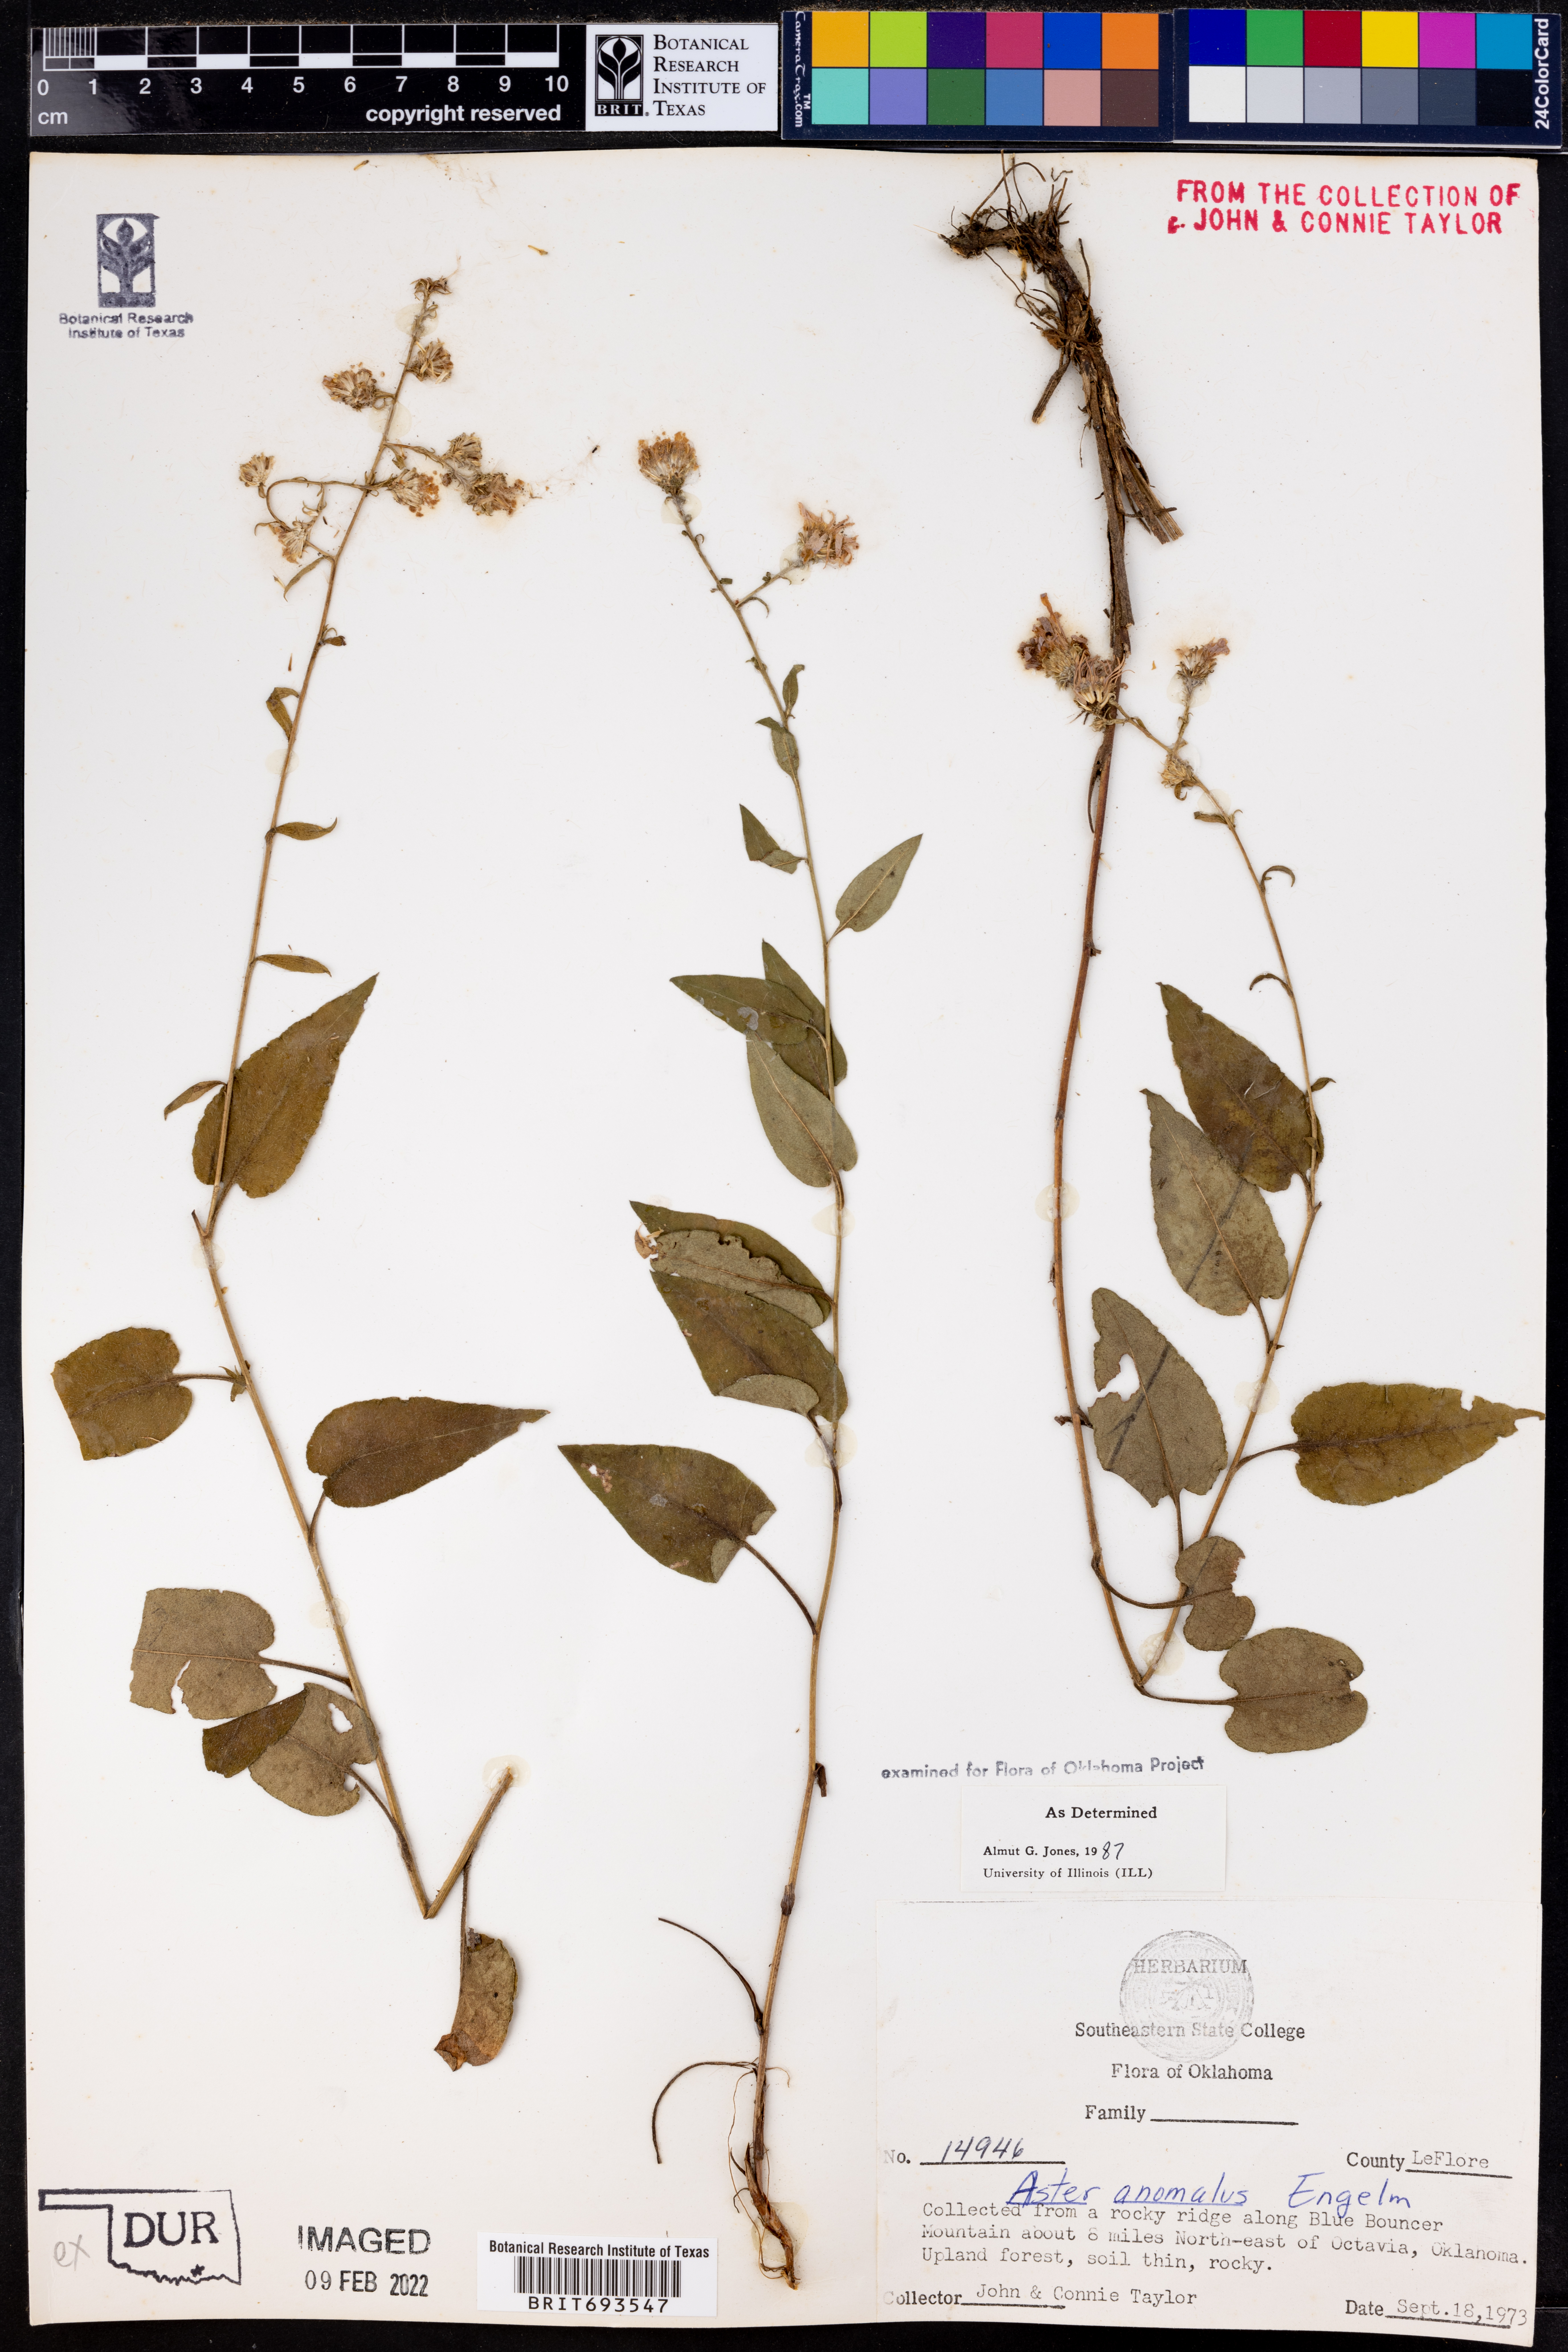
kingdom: Plantae
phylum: Tracheophyta
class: Magnoliopsida
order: Asterales
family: Asteraceae
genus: Symphyotrichum
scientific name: Symphyotrichum anomalum
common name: Many-ray aster
